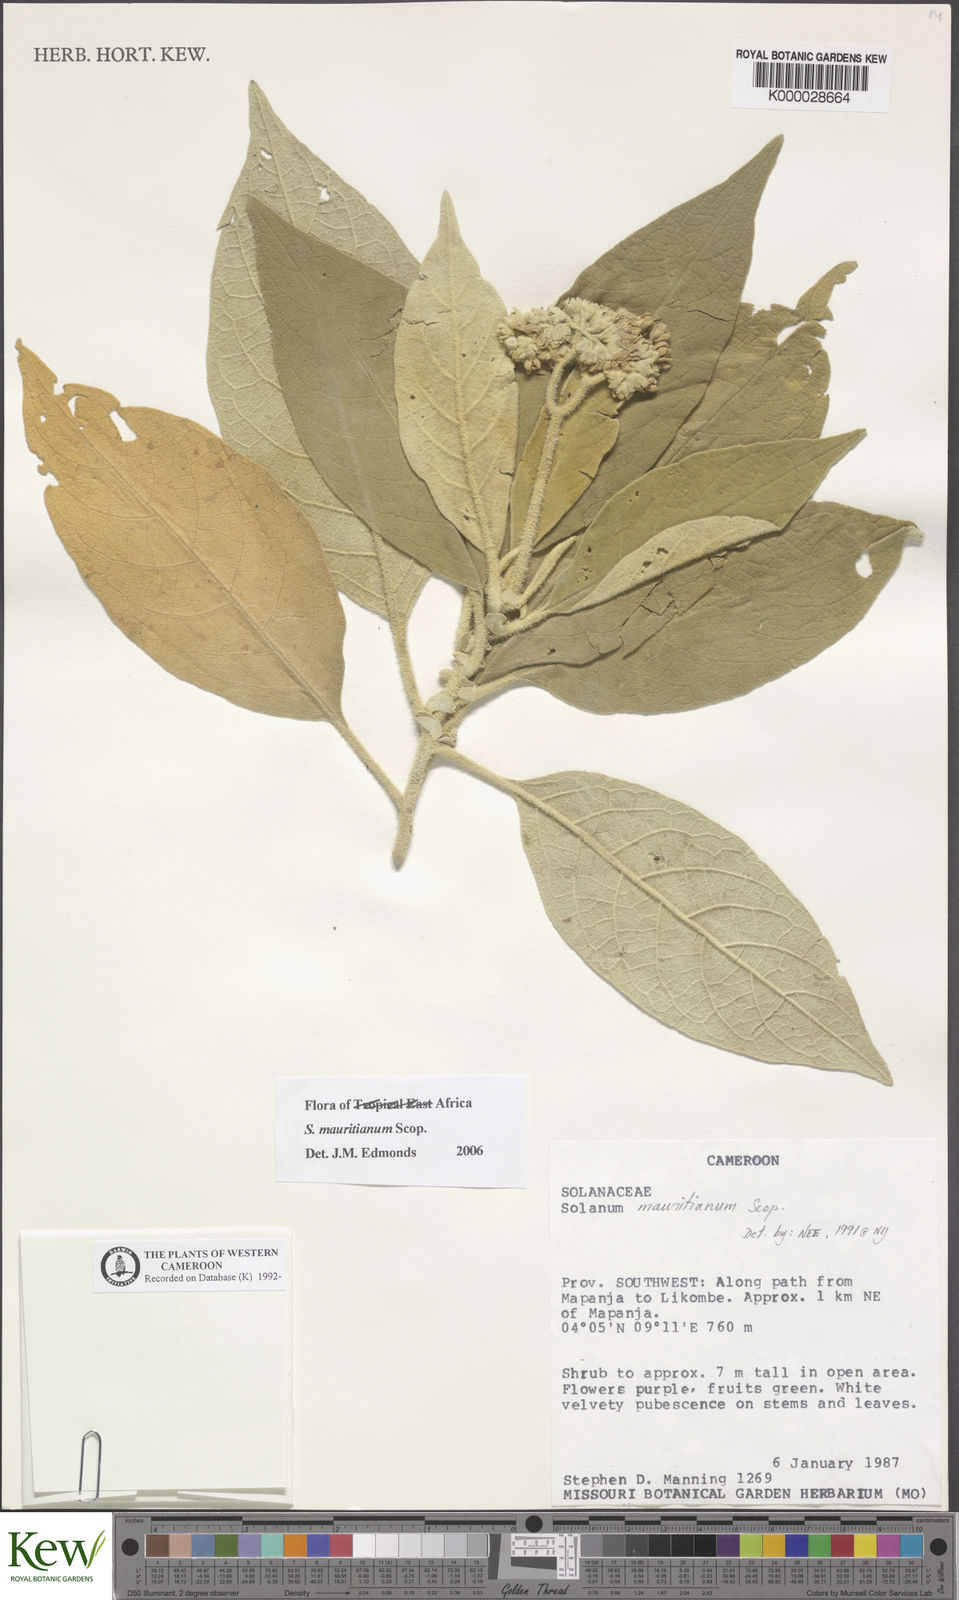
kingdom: Plantae
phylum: Tracheophyta
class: Magnoliopsida
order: Solanales
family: Solanaceae
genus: Solanum
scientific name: Solanum mauritianum
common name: Earleaf nightshade
